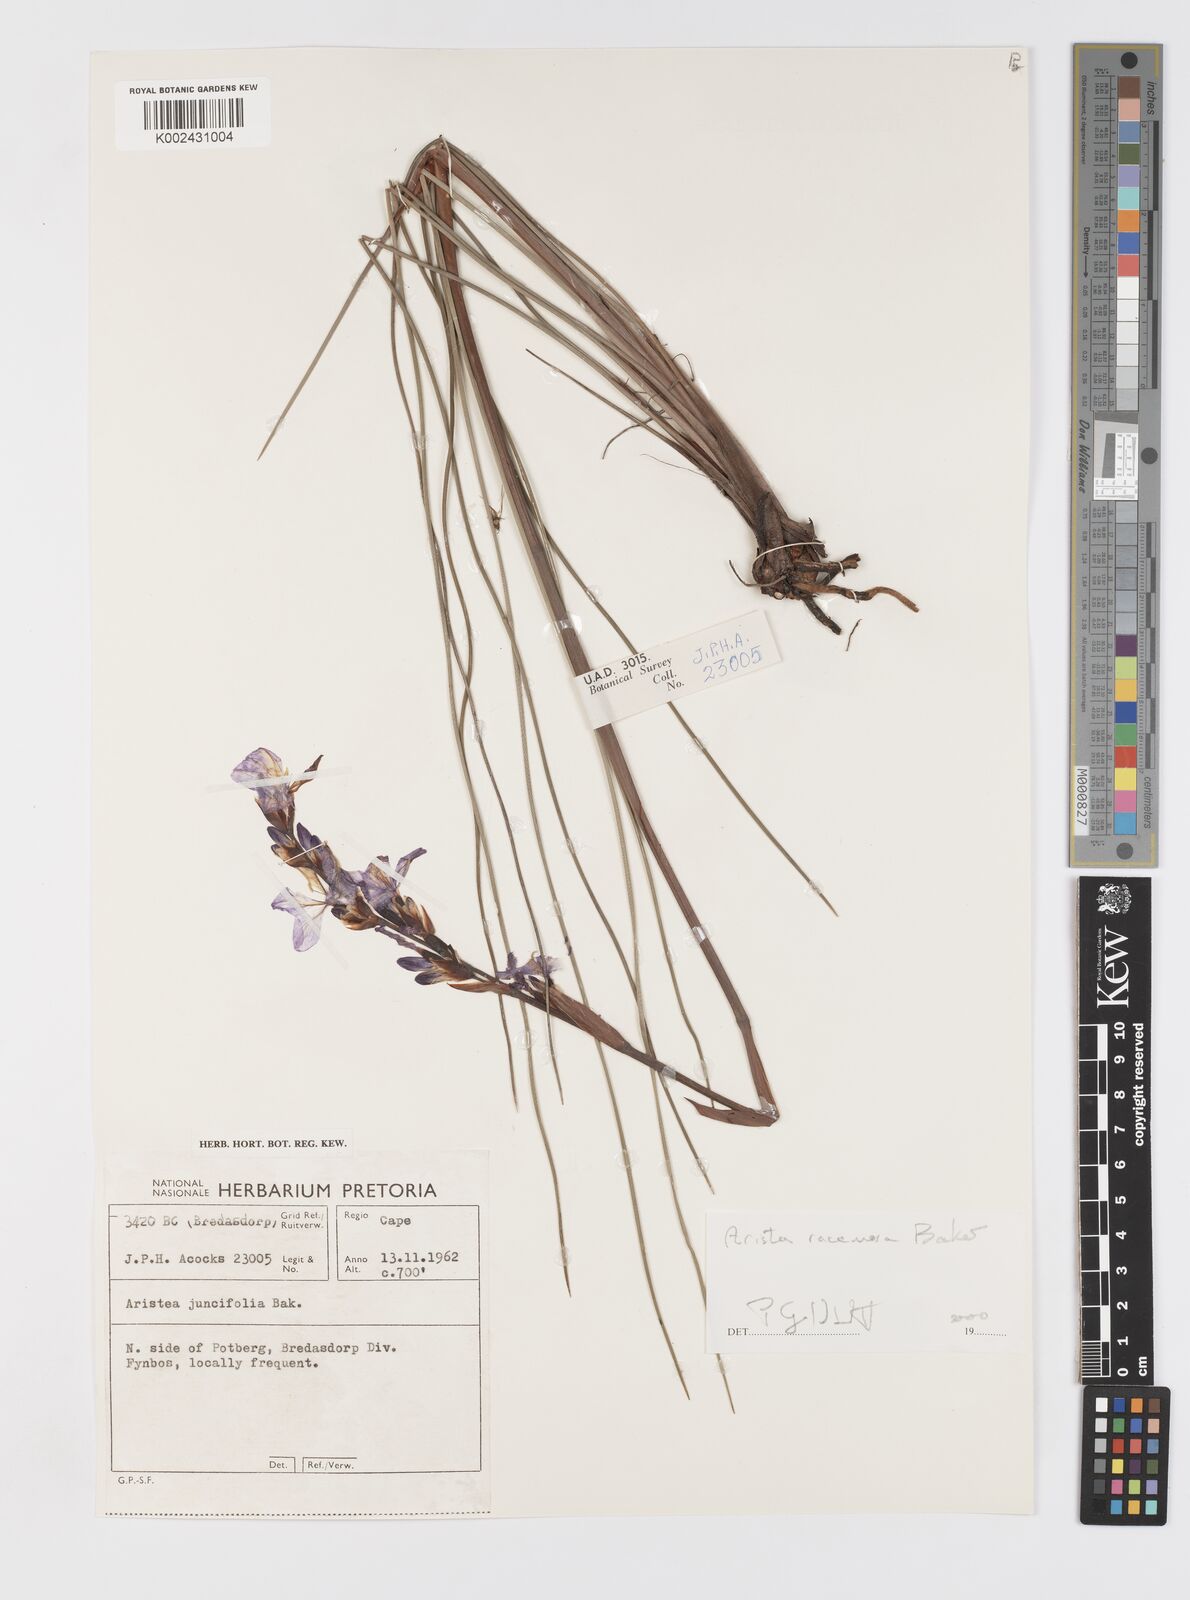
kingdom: Plantae
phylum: Tracheophyta
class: Liliopsida
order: Asparagales
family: Iridaceae
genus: Aristea
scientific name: Aristea racemosa
